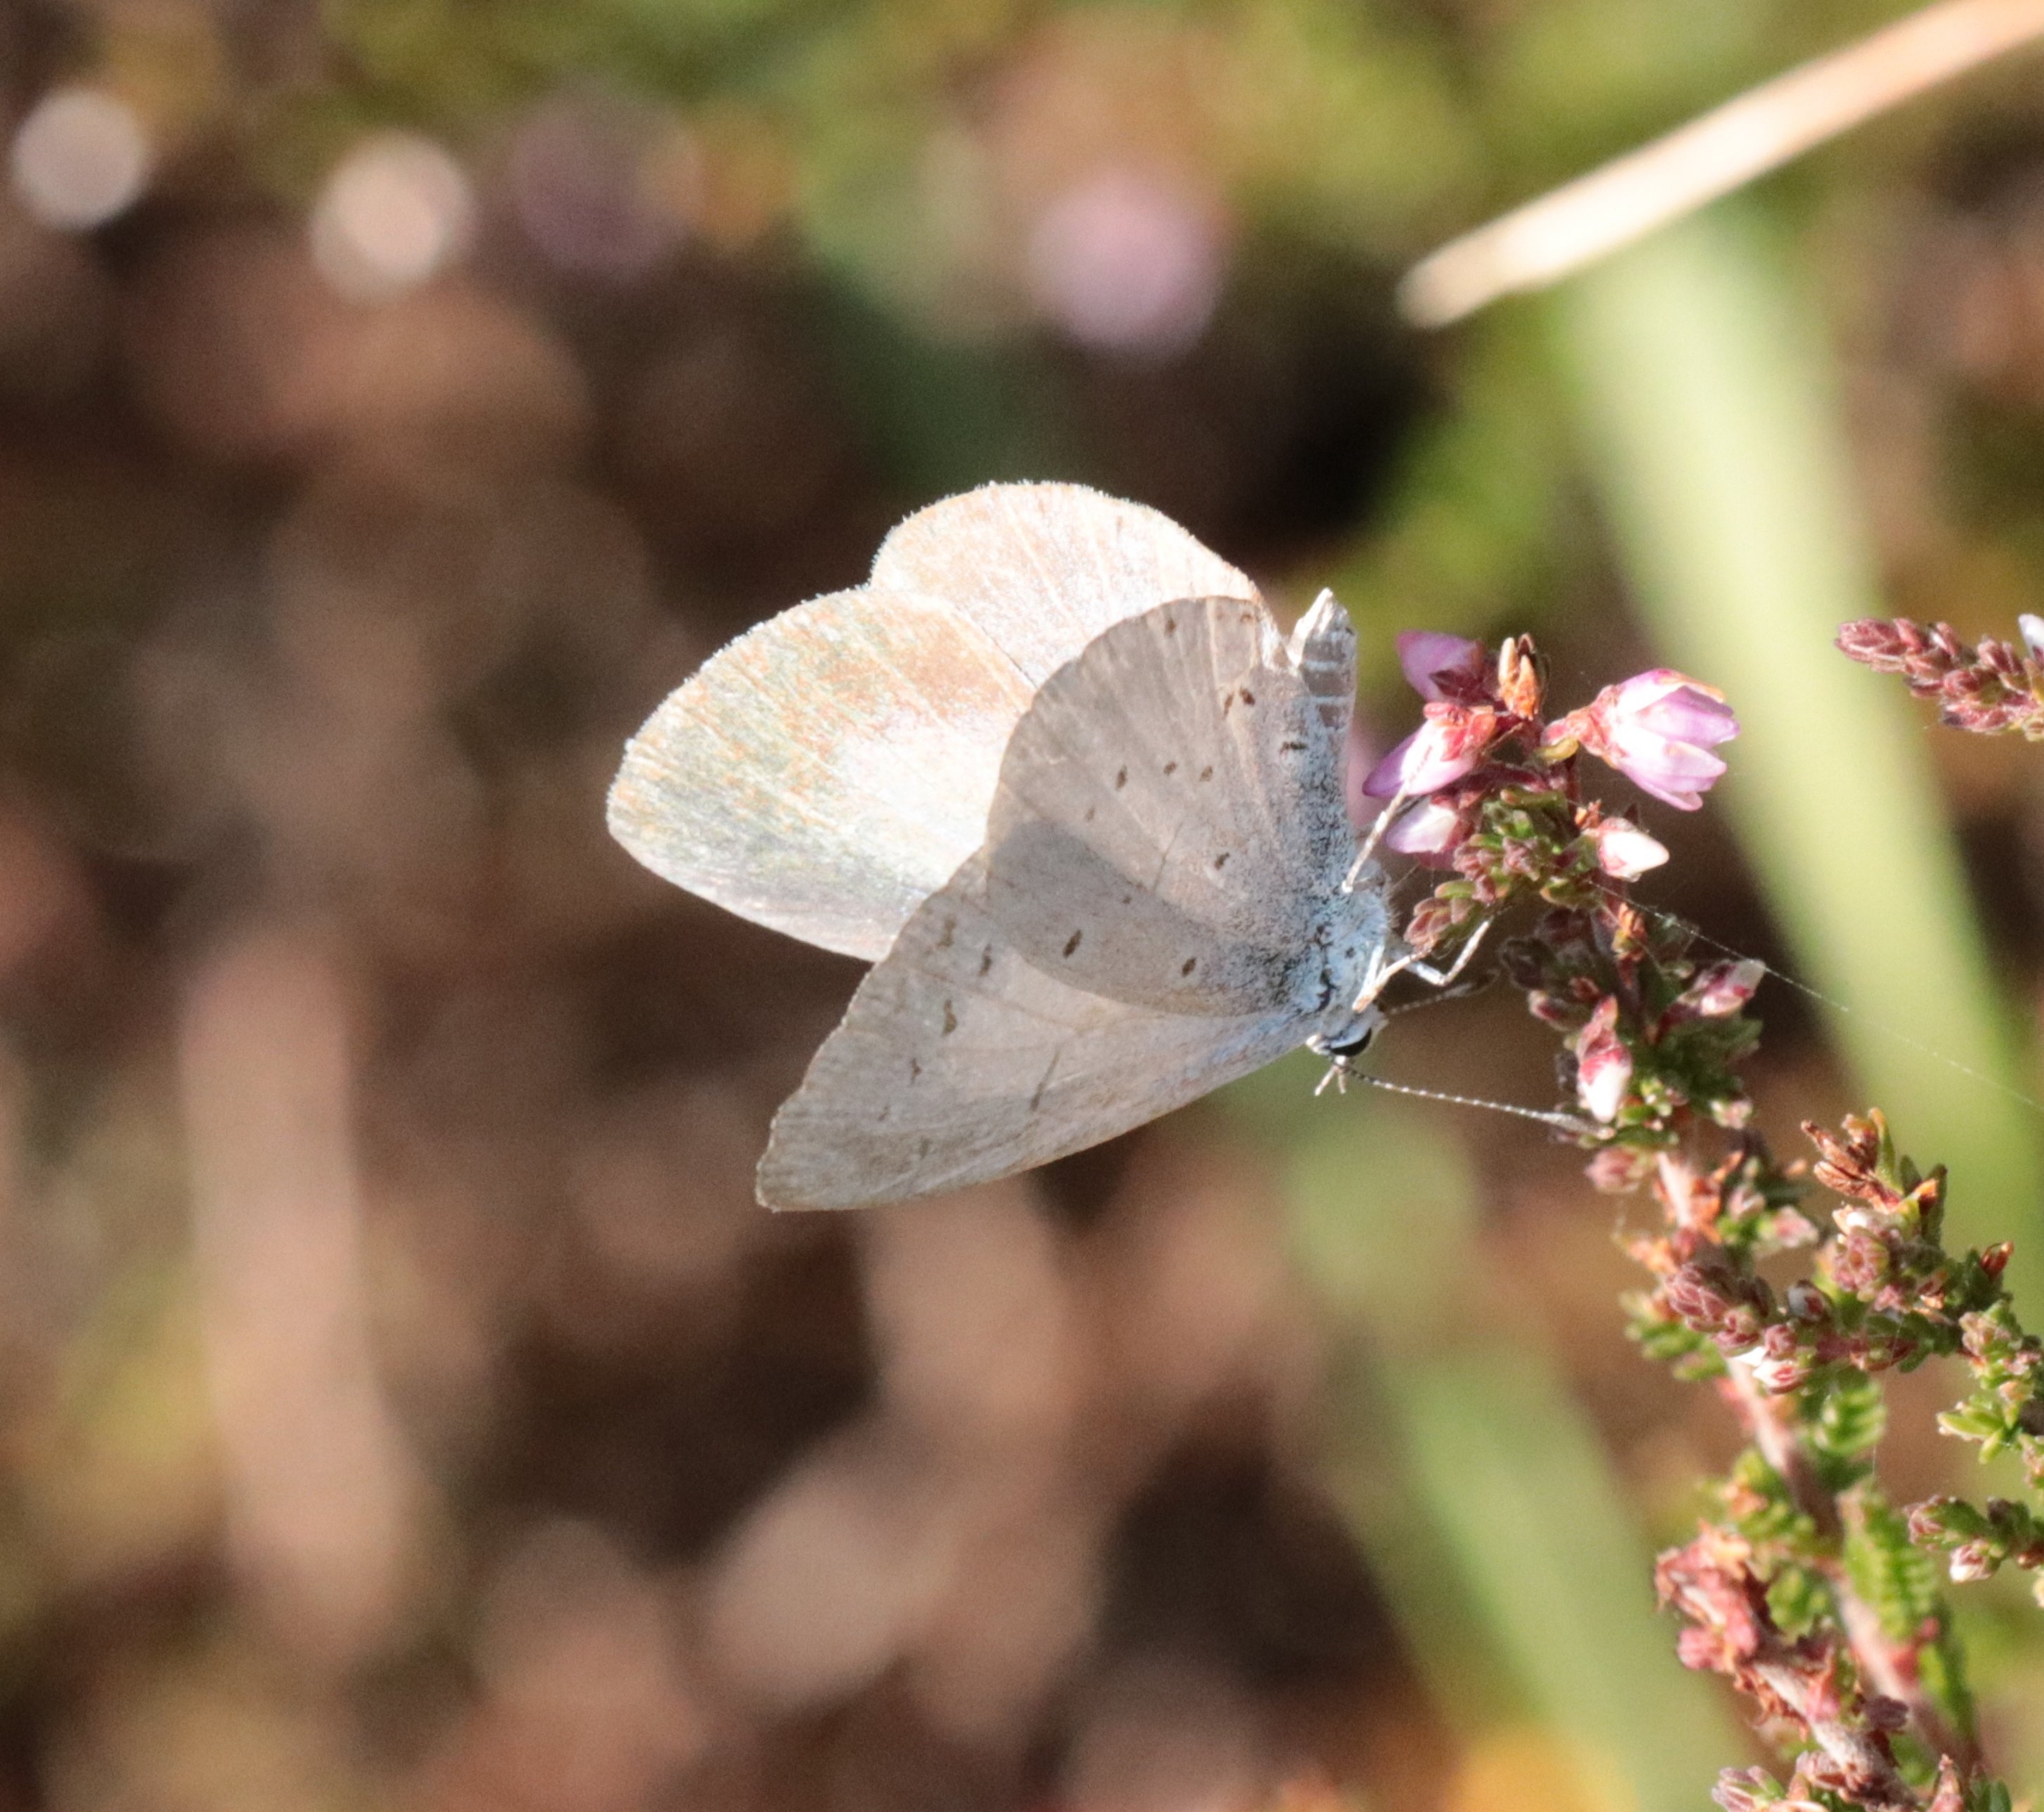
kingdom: Animalia
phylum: Arthropoda
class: Insecta
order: Lepidoptera
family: Lycaenidae
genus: Celastrina
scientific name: Celastrina argiolus
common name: Skovblåfugl
